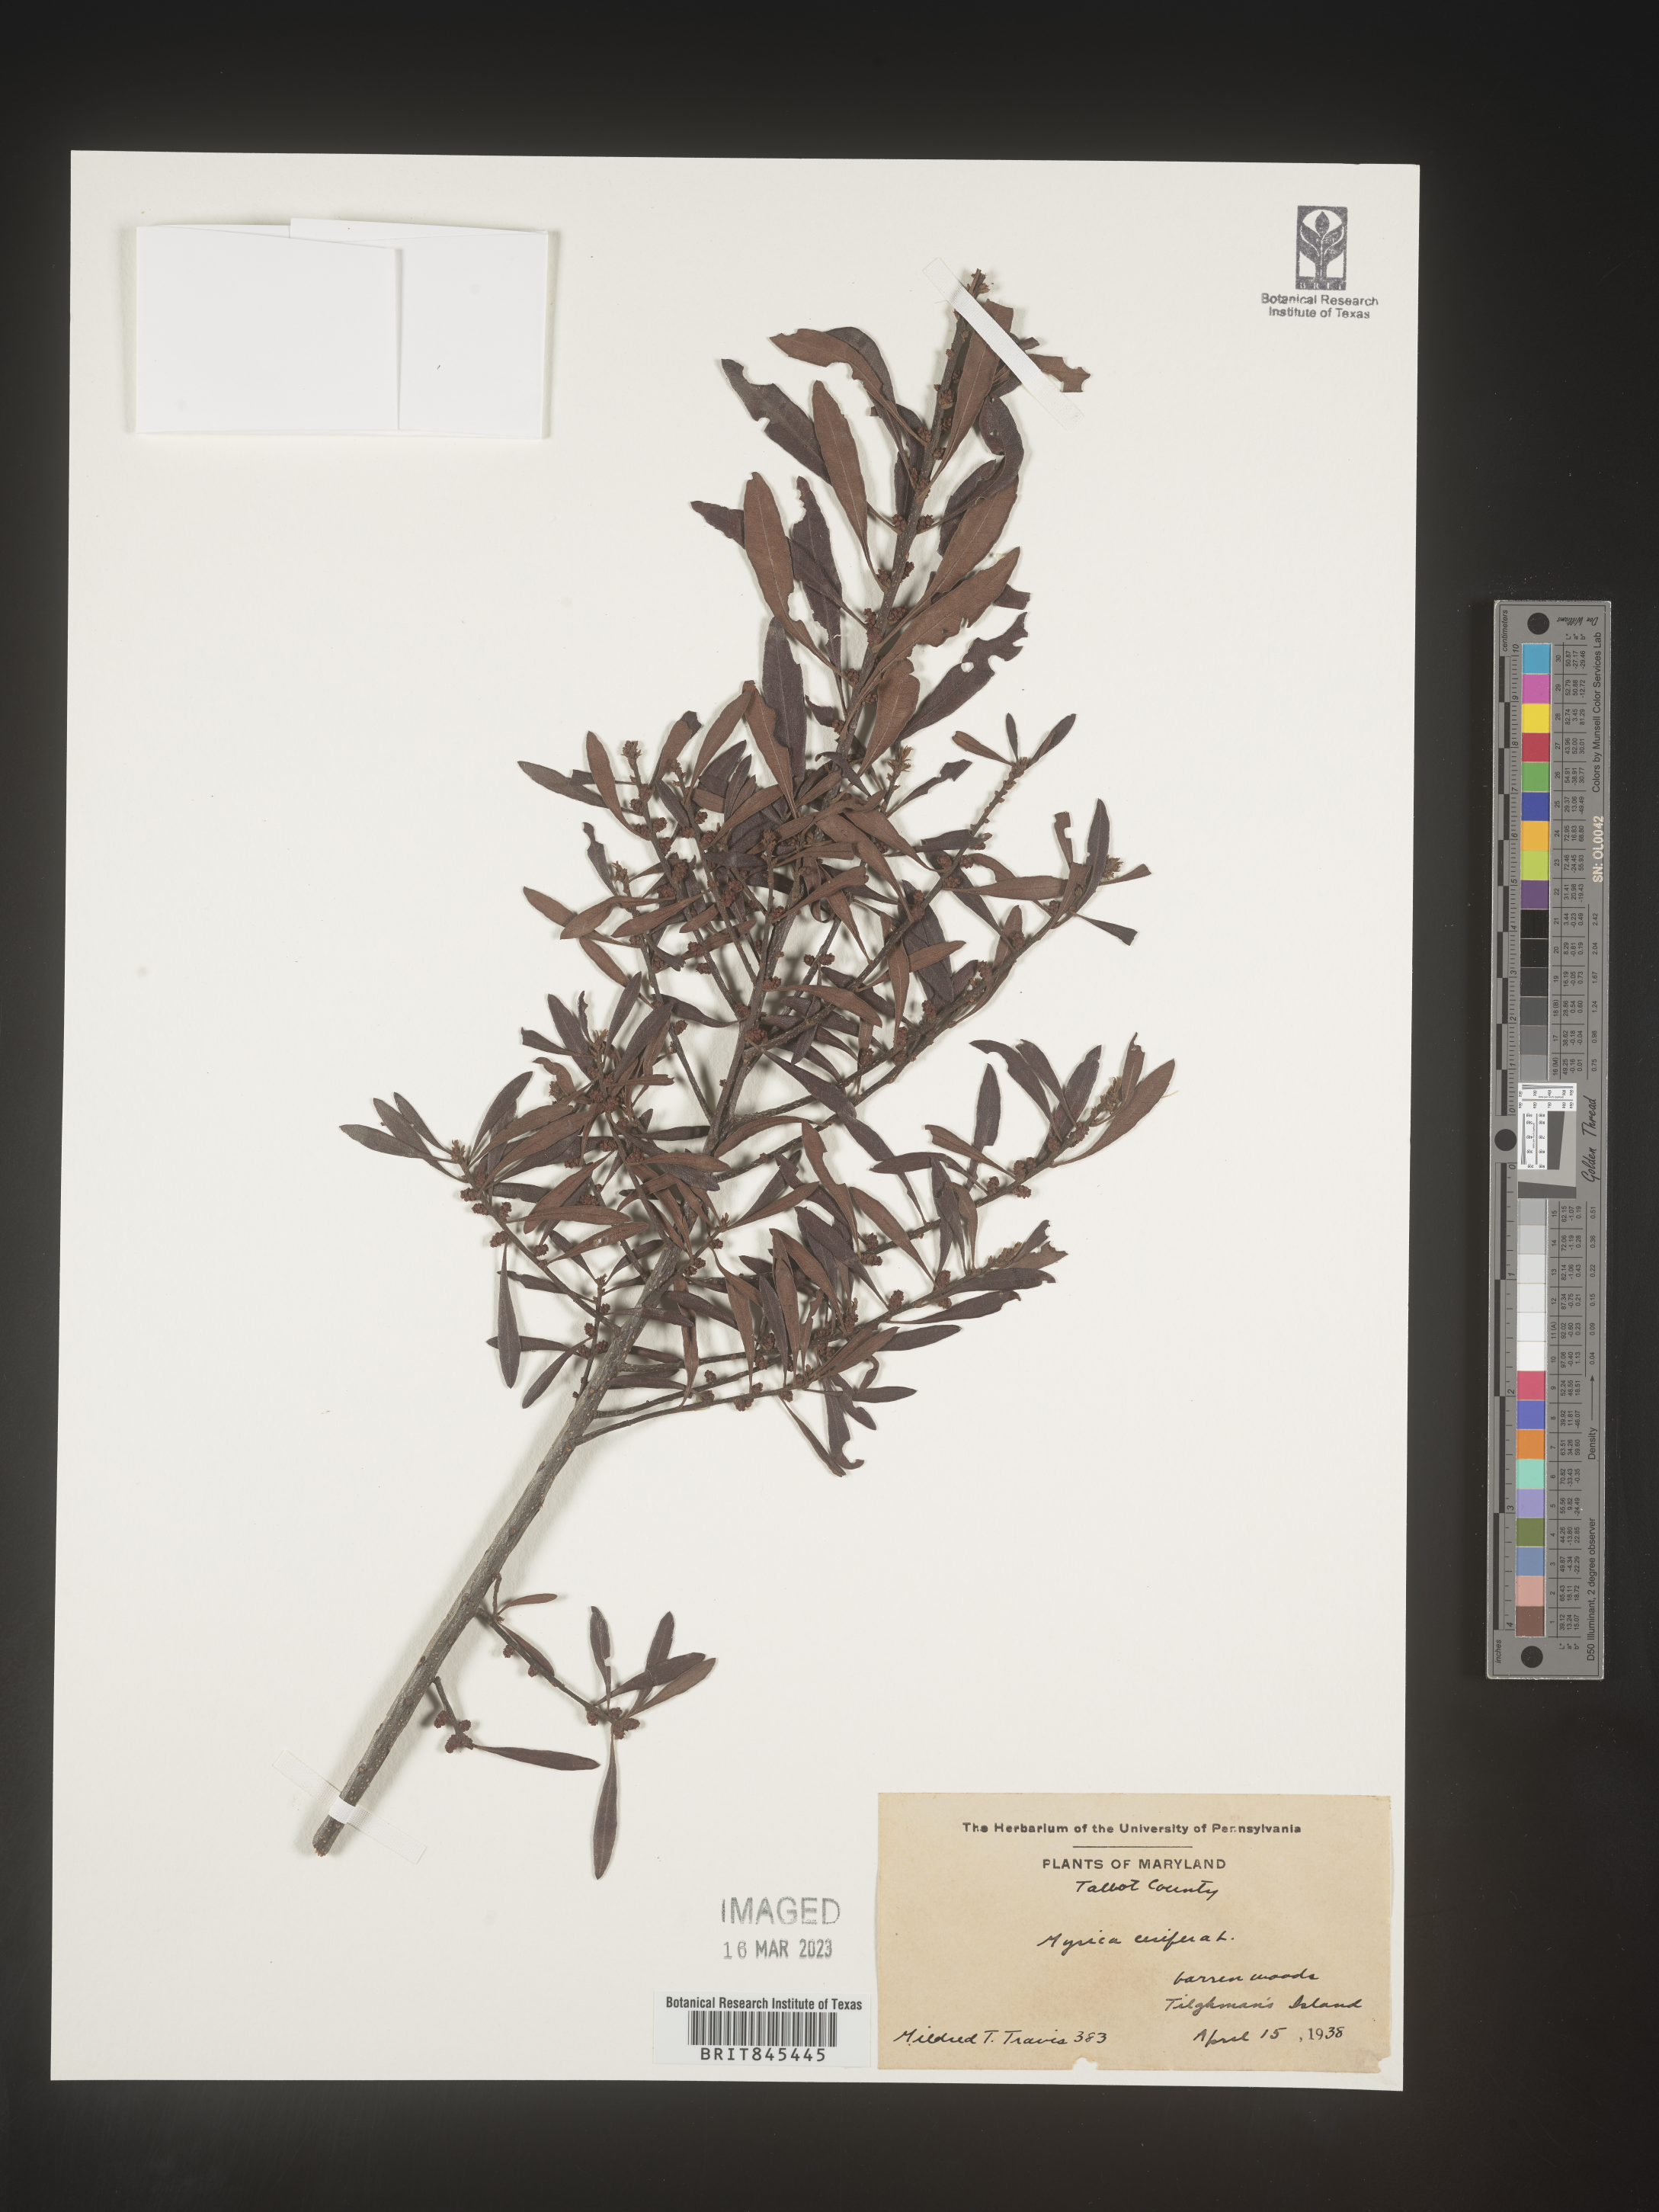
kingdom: Plantae
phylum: Tracheophyta
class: Magnoliopsida
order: Fagales
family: Myricaceae
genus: Morella
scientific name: Morella cerifera
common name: Wax myrtle
